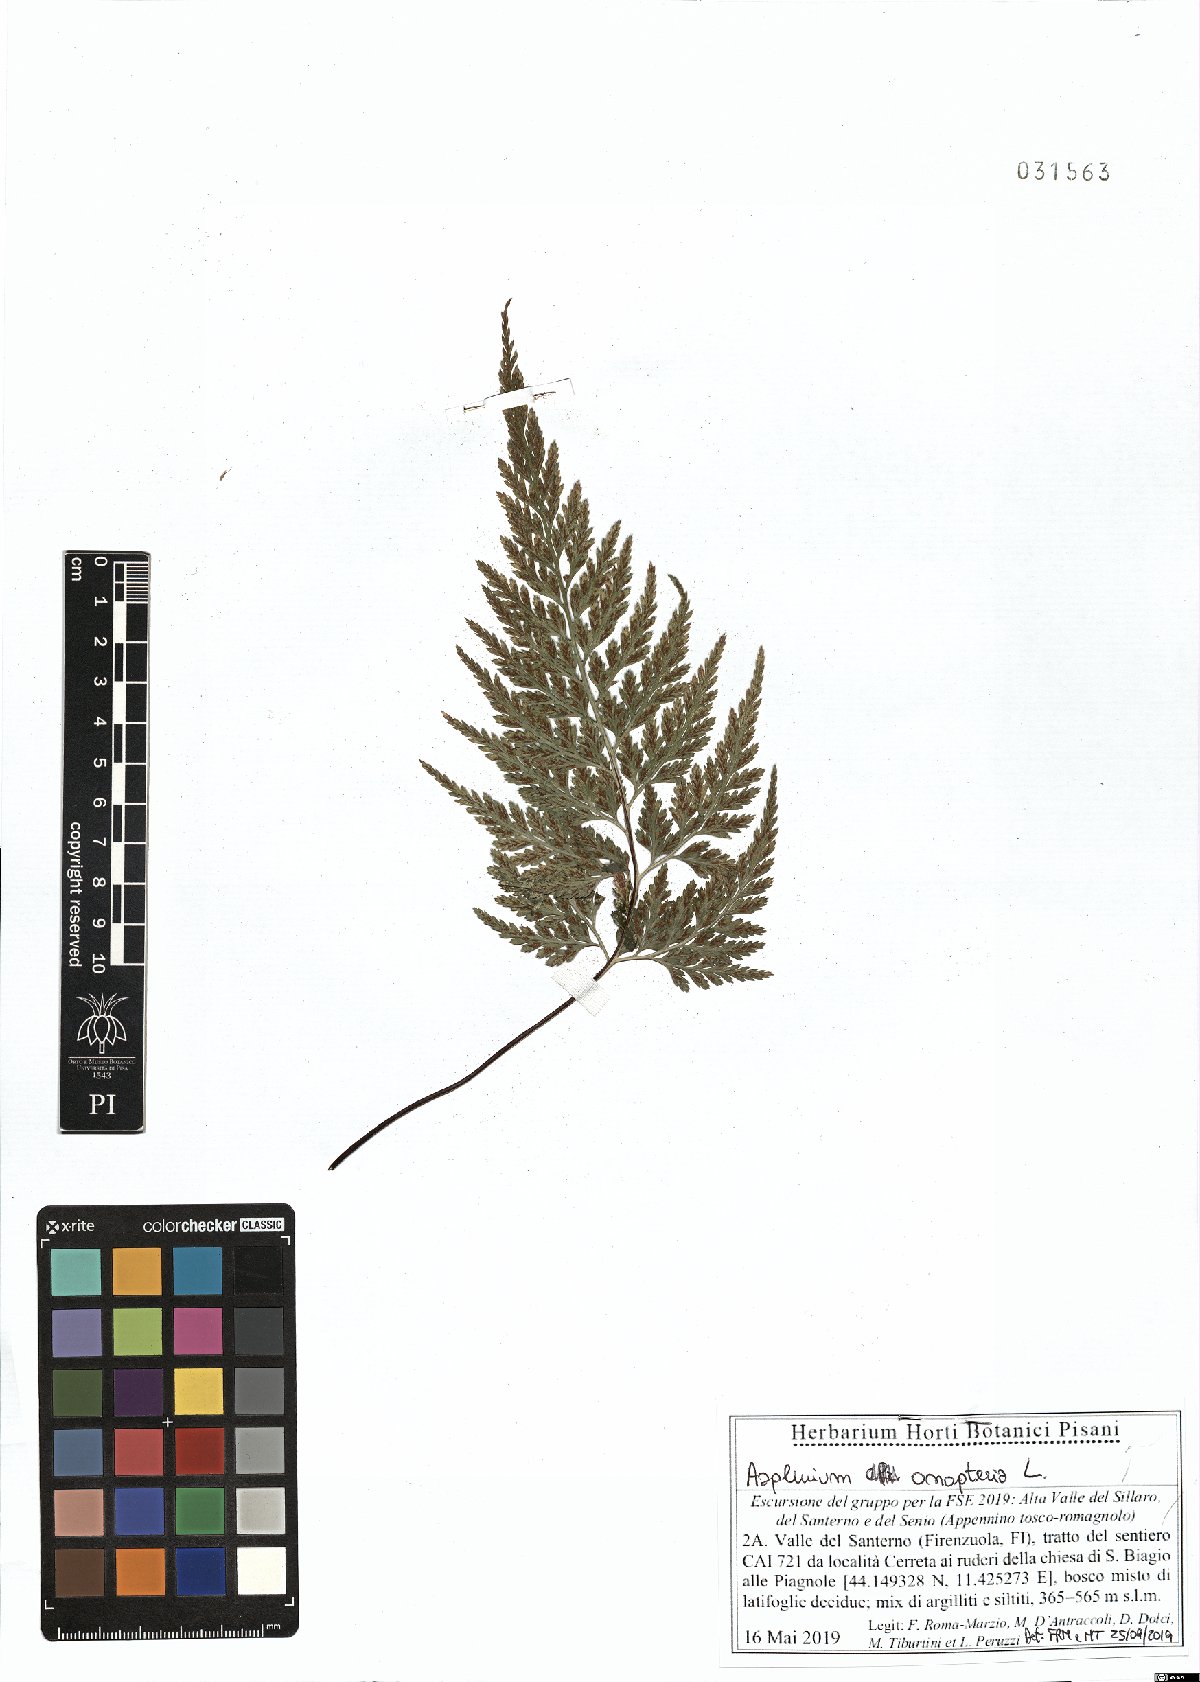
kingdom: Plantae
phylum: Tracheophyta
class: Polypodiopsida
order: Polypodiales
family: Aspleniaceae
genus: Asplenium
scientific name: Asplenium onopteris
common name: Irish spleenwort
